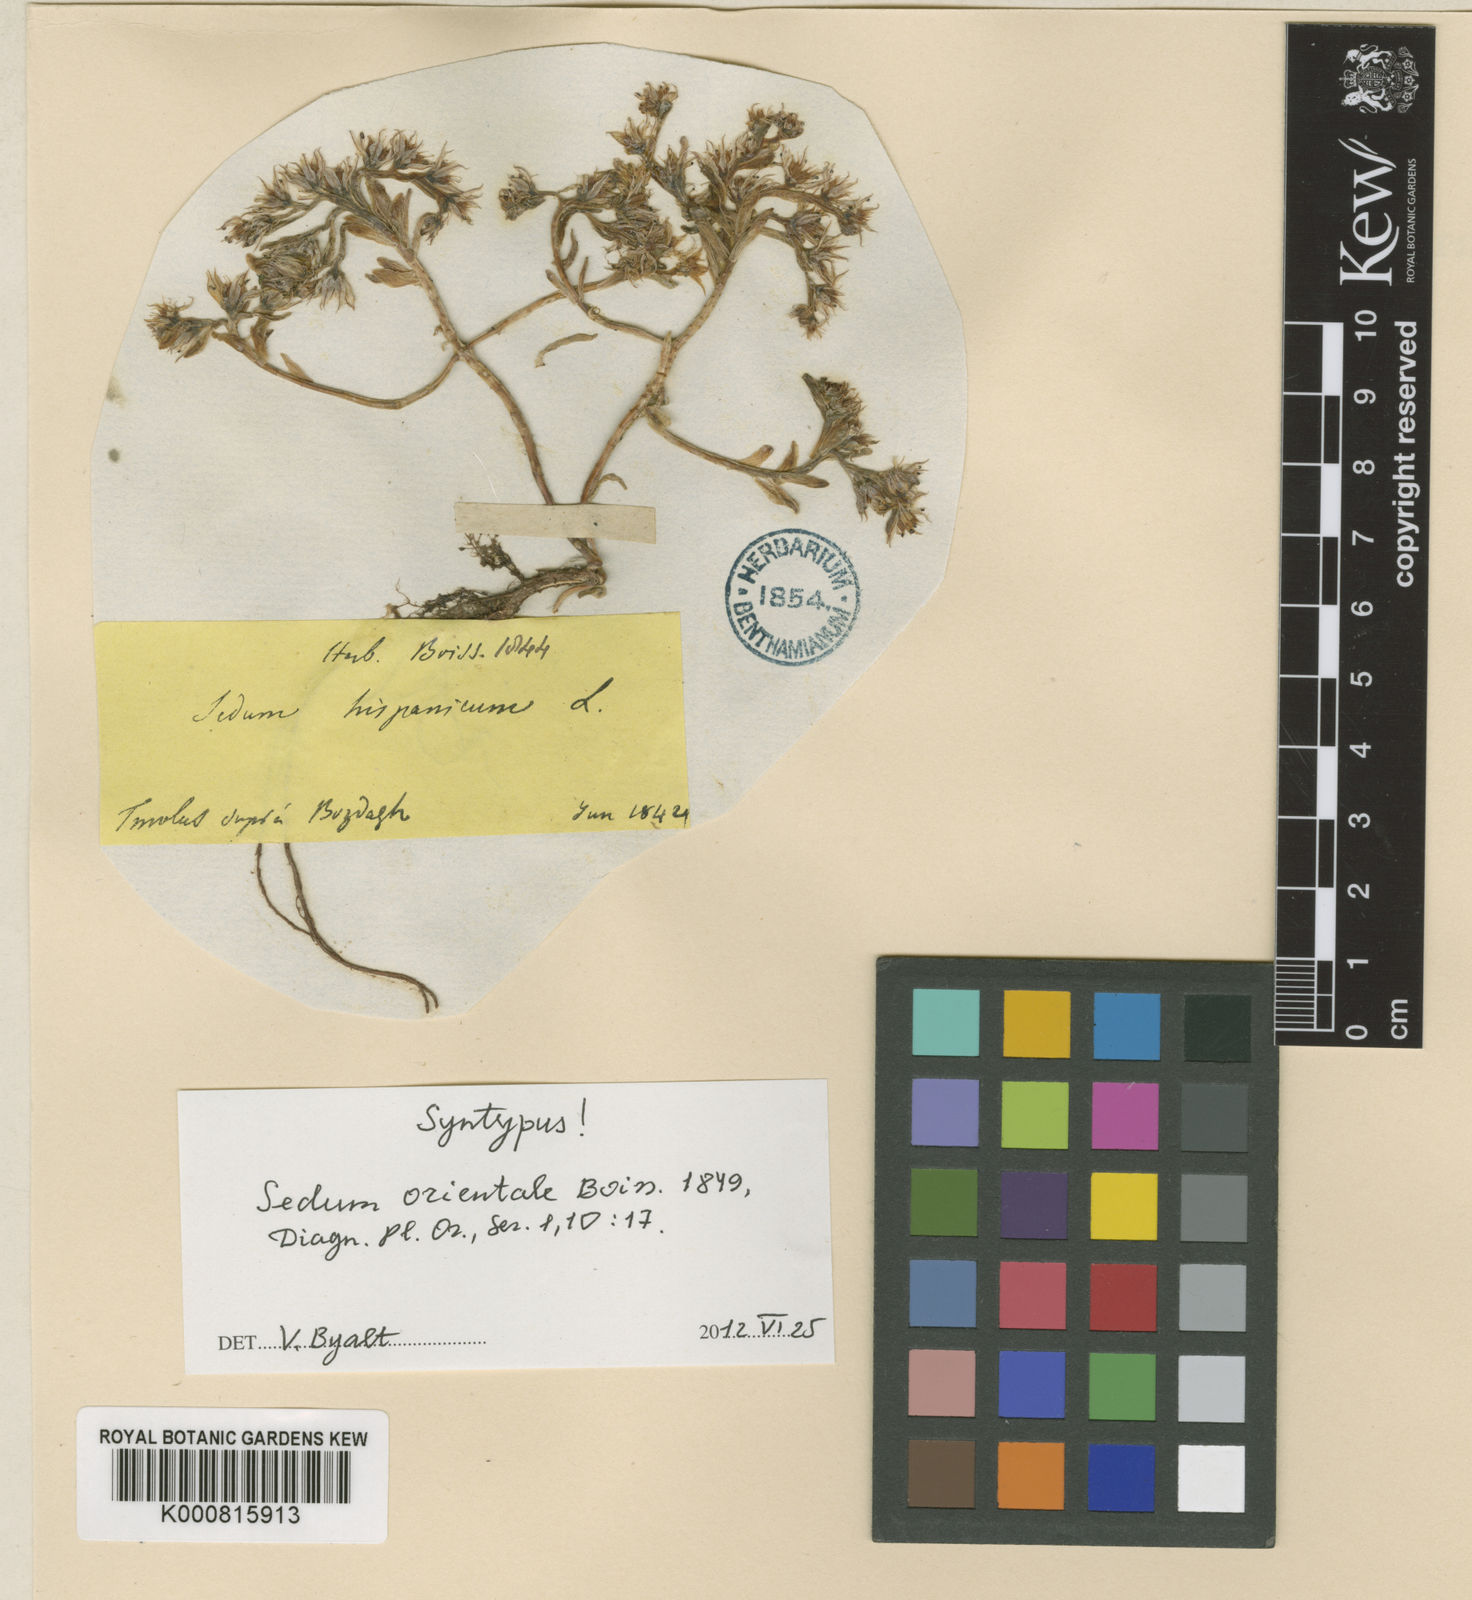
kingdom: Plantae
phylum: Tracheophyta
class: Magnoliopsida
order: Saxifragales
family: Crassulaceae
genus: Sedum
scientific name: Sedum hispanicum
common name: Spanish stonecrop
